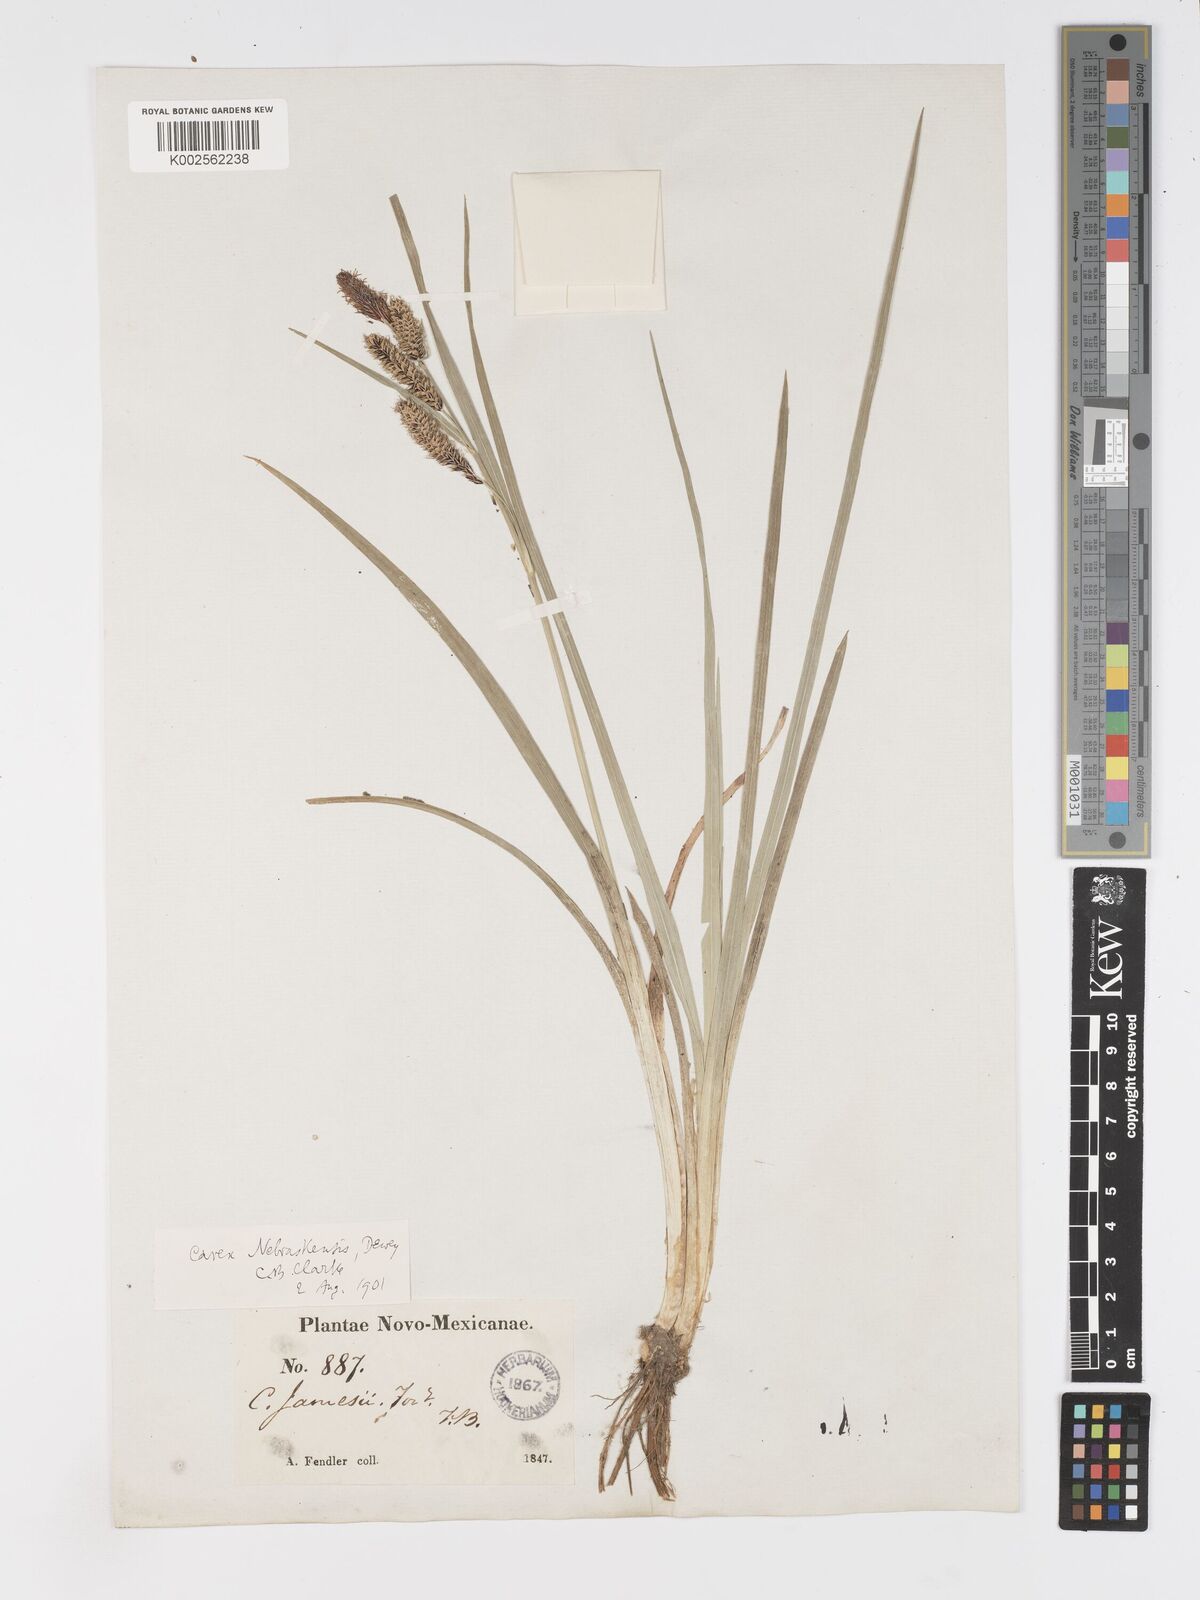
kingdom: Plantae
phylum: Tracheophyta
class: Liliopsida
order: Poales
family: Cyperaceae
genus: Carex
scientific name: Carex nebrascensis
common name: Nebraska sedge
